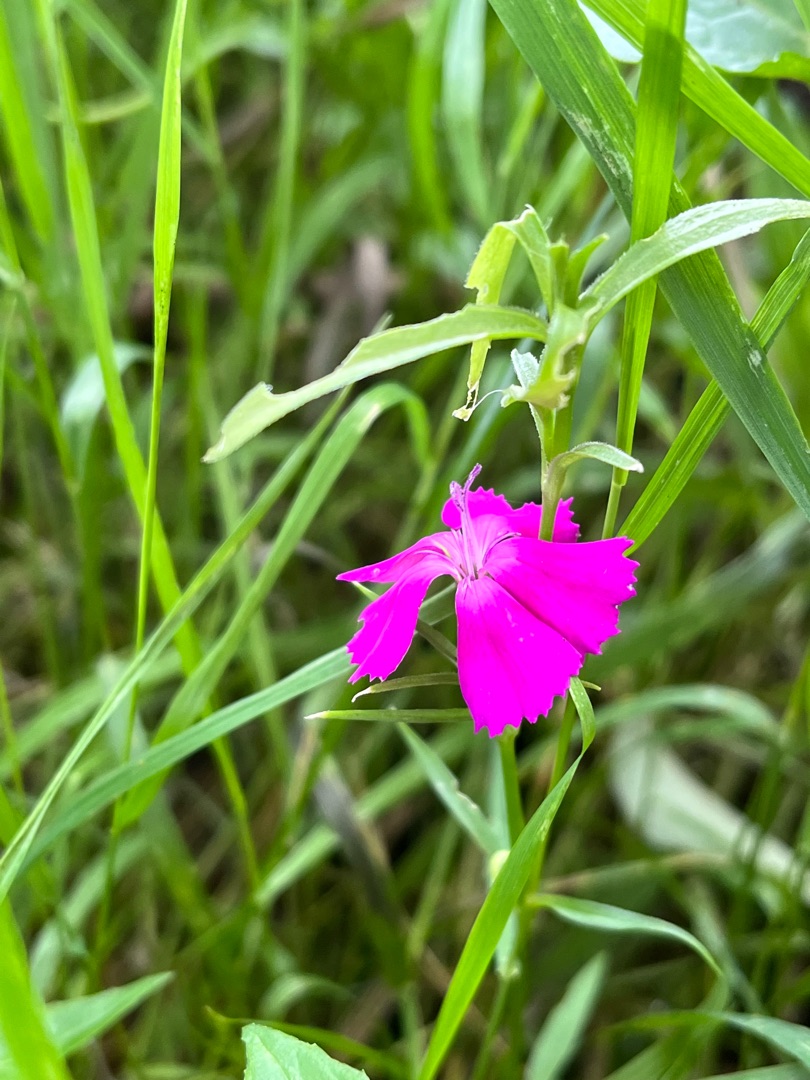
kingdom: Plantae
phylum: Tracheophyta
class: Magnoliopsida
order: Caryophyllales
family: Caryophyllaceae
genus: Dianthus
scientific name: Dianthus barbatus
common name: Studenter-nellike
